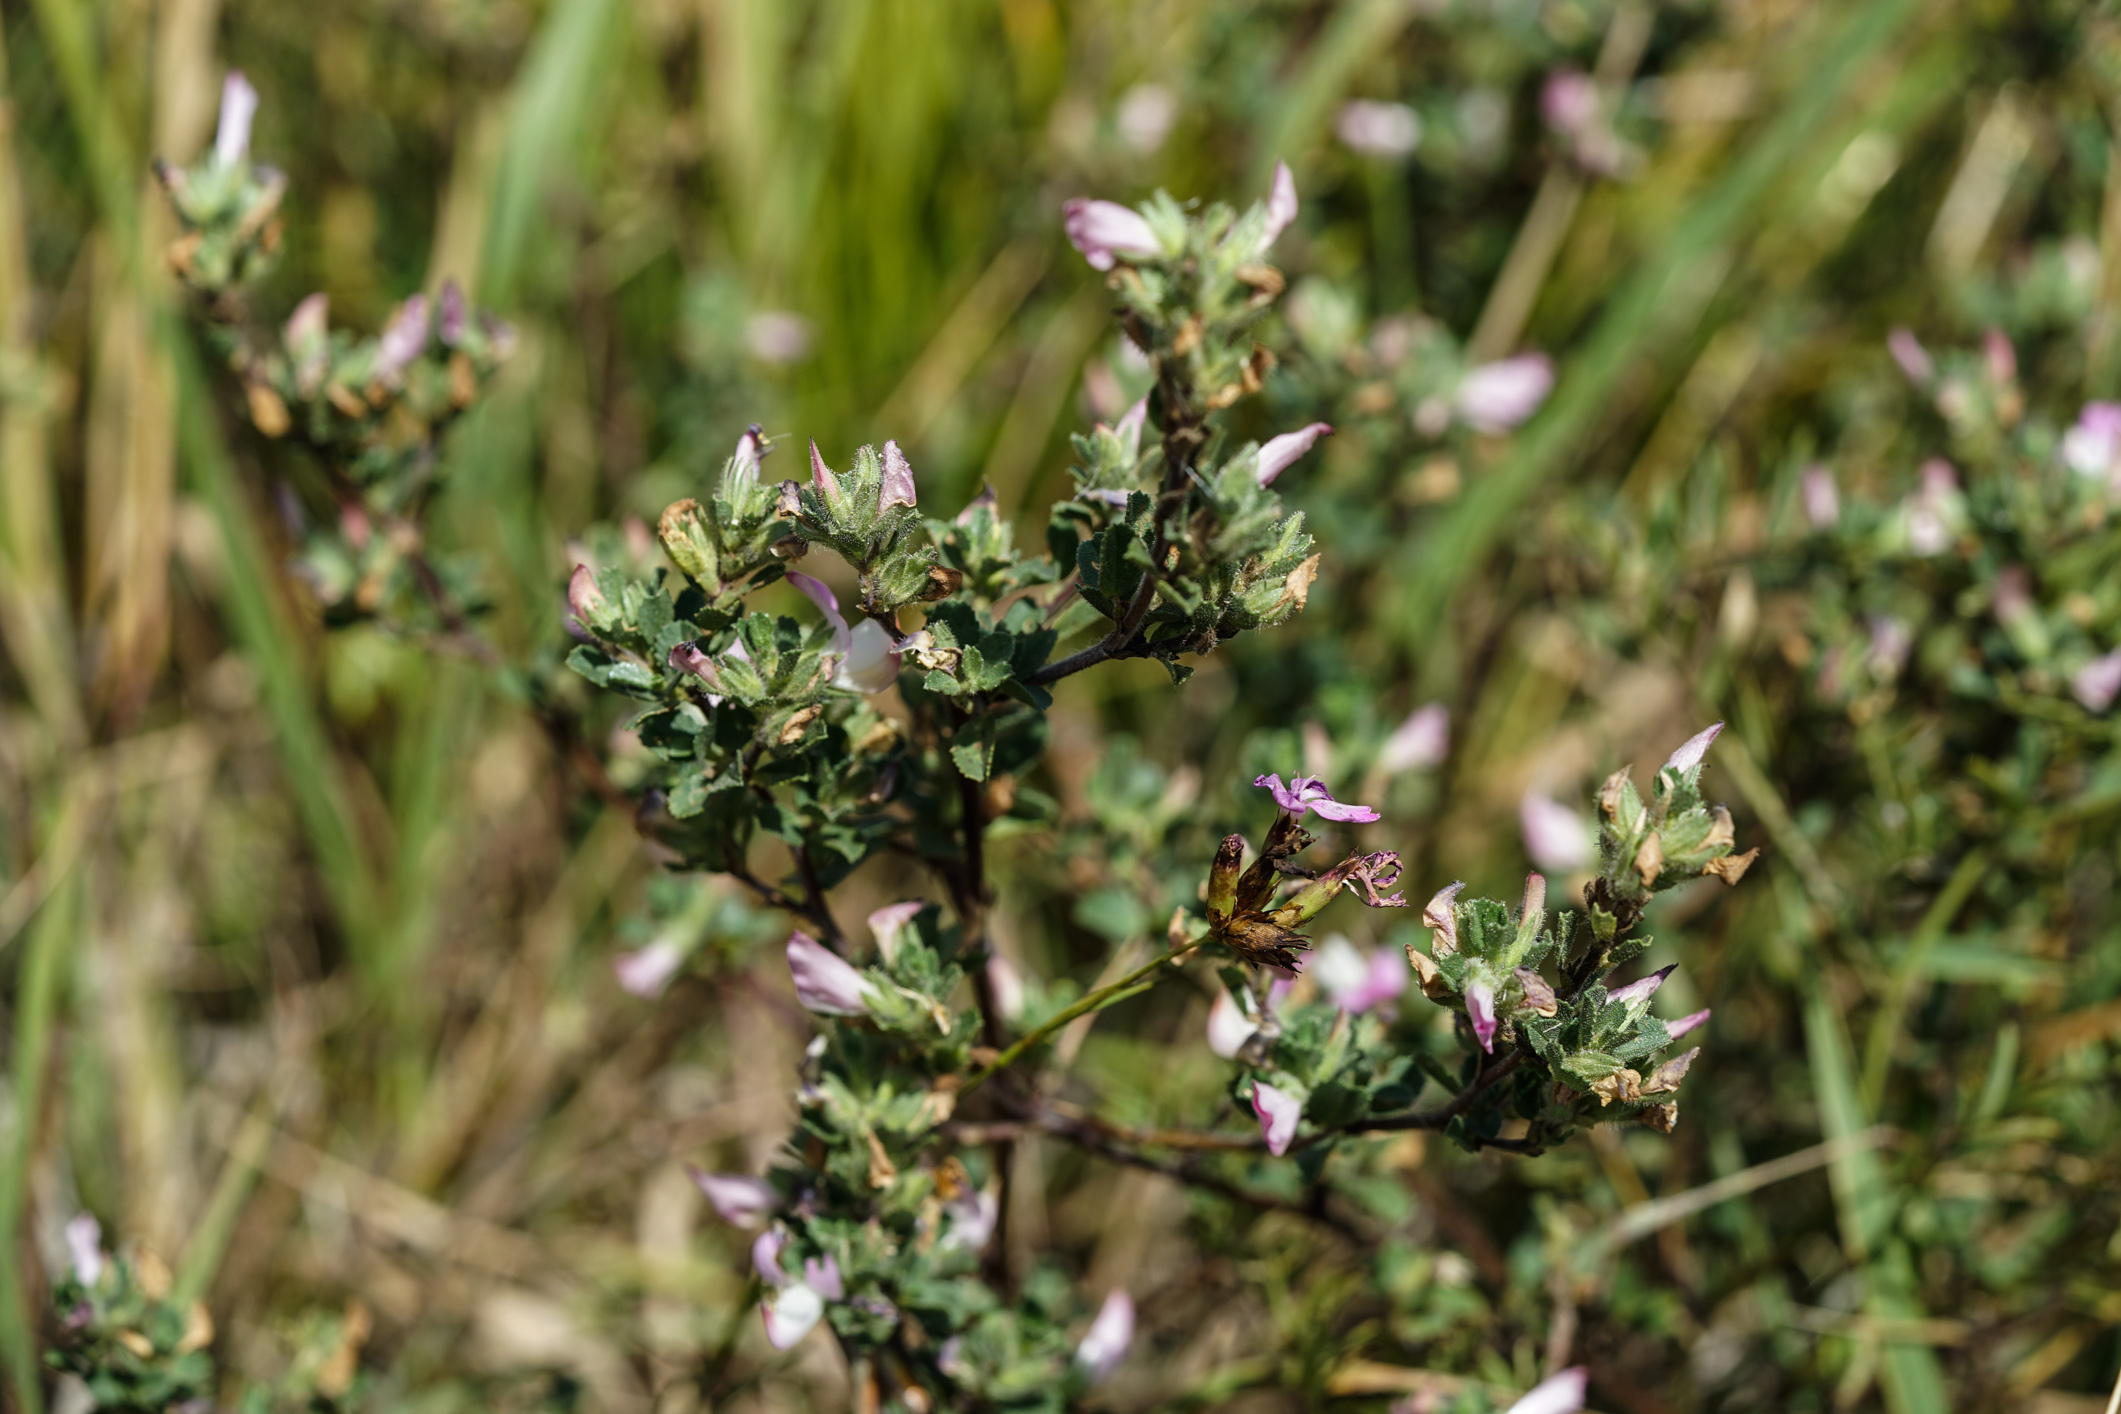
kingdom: Plantae
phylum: Tracheophyta
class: Magnoliopsida
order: Fabales
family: Fabaceae
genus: Ononis
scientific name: Ononis spinosa
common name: Spiny restharrow
